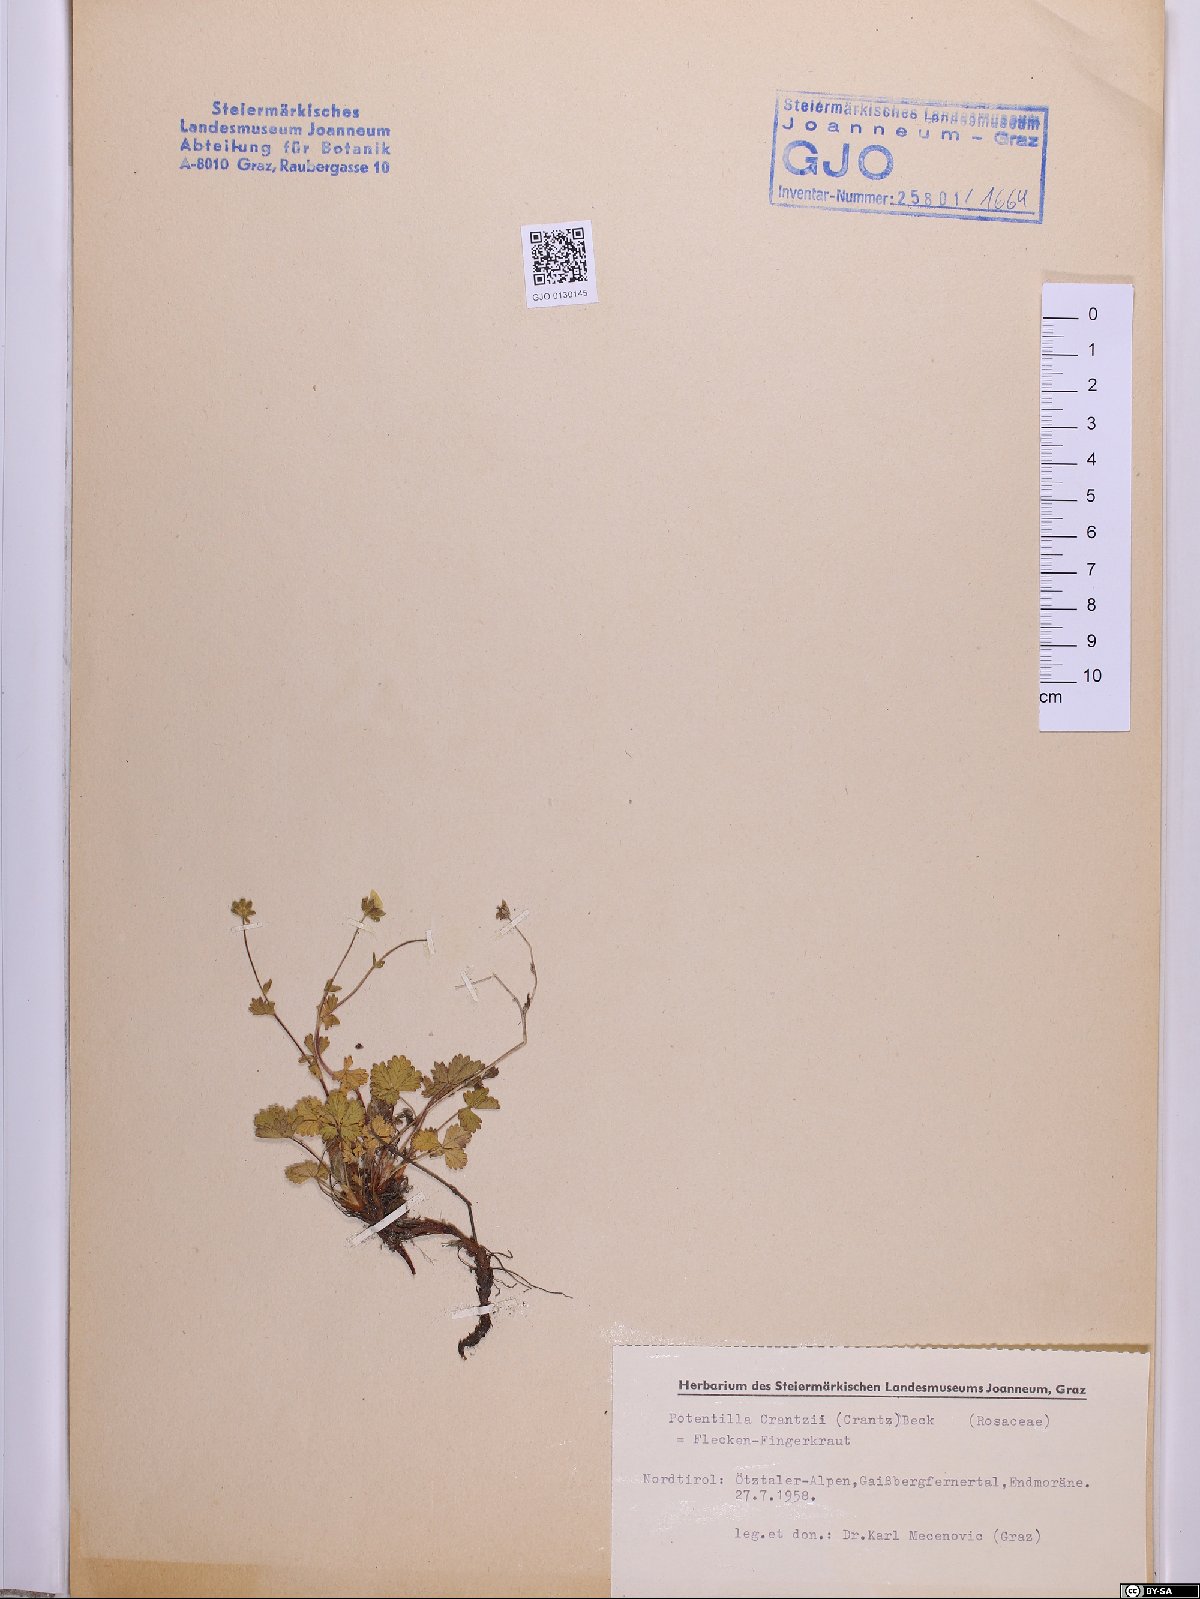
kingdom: Plantae
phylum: Tracheophyta
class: Magnoliopsida
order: Rosales
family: Rosaceae
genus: Potentilla
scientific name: Potentilla crantzii
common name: Alpine cinquefoil
